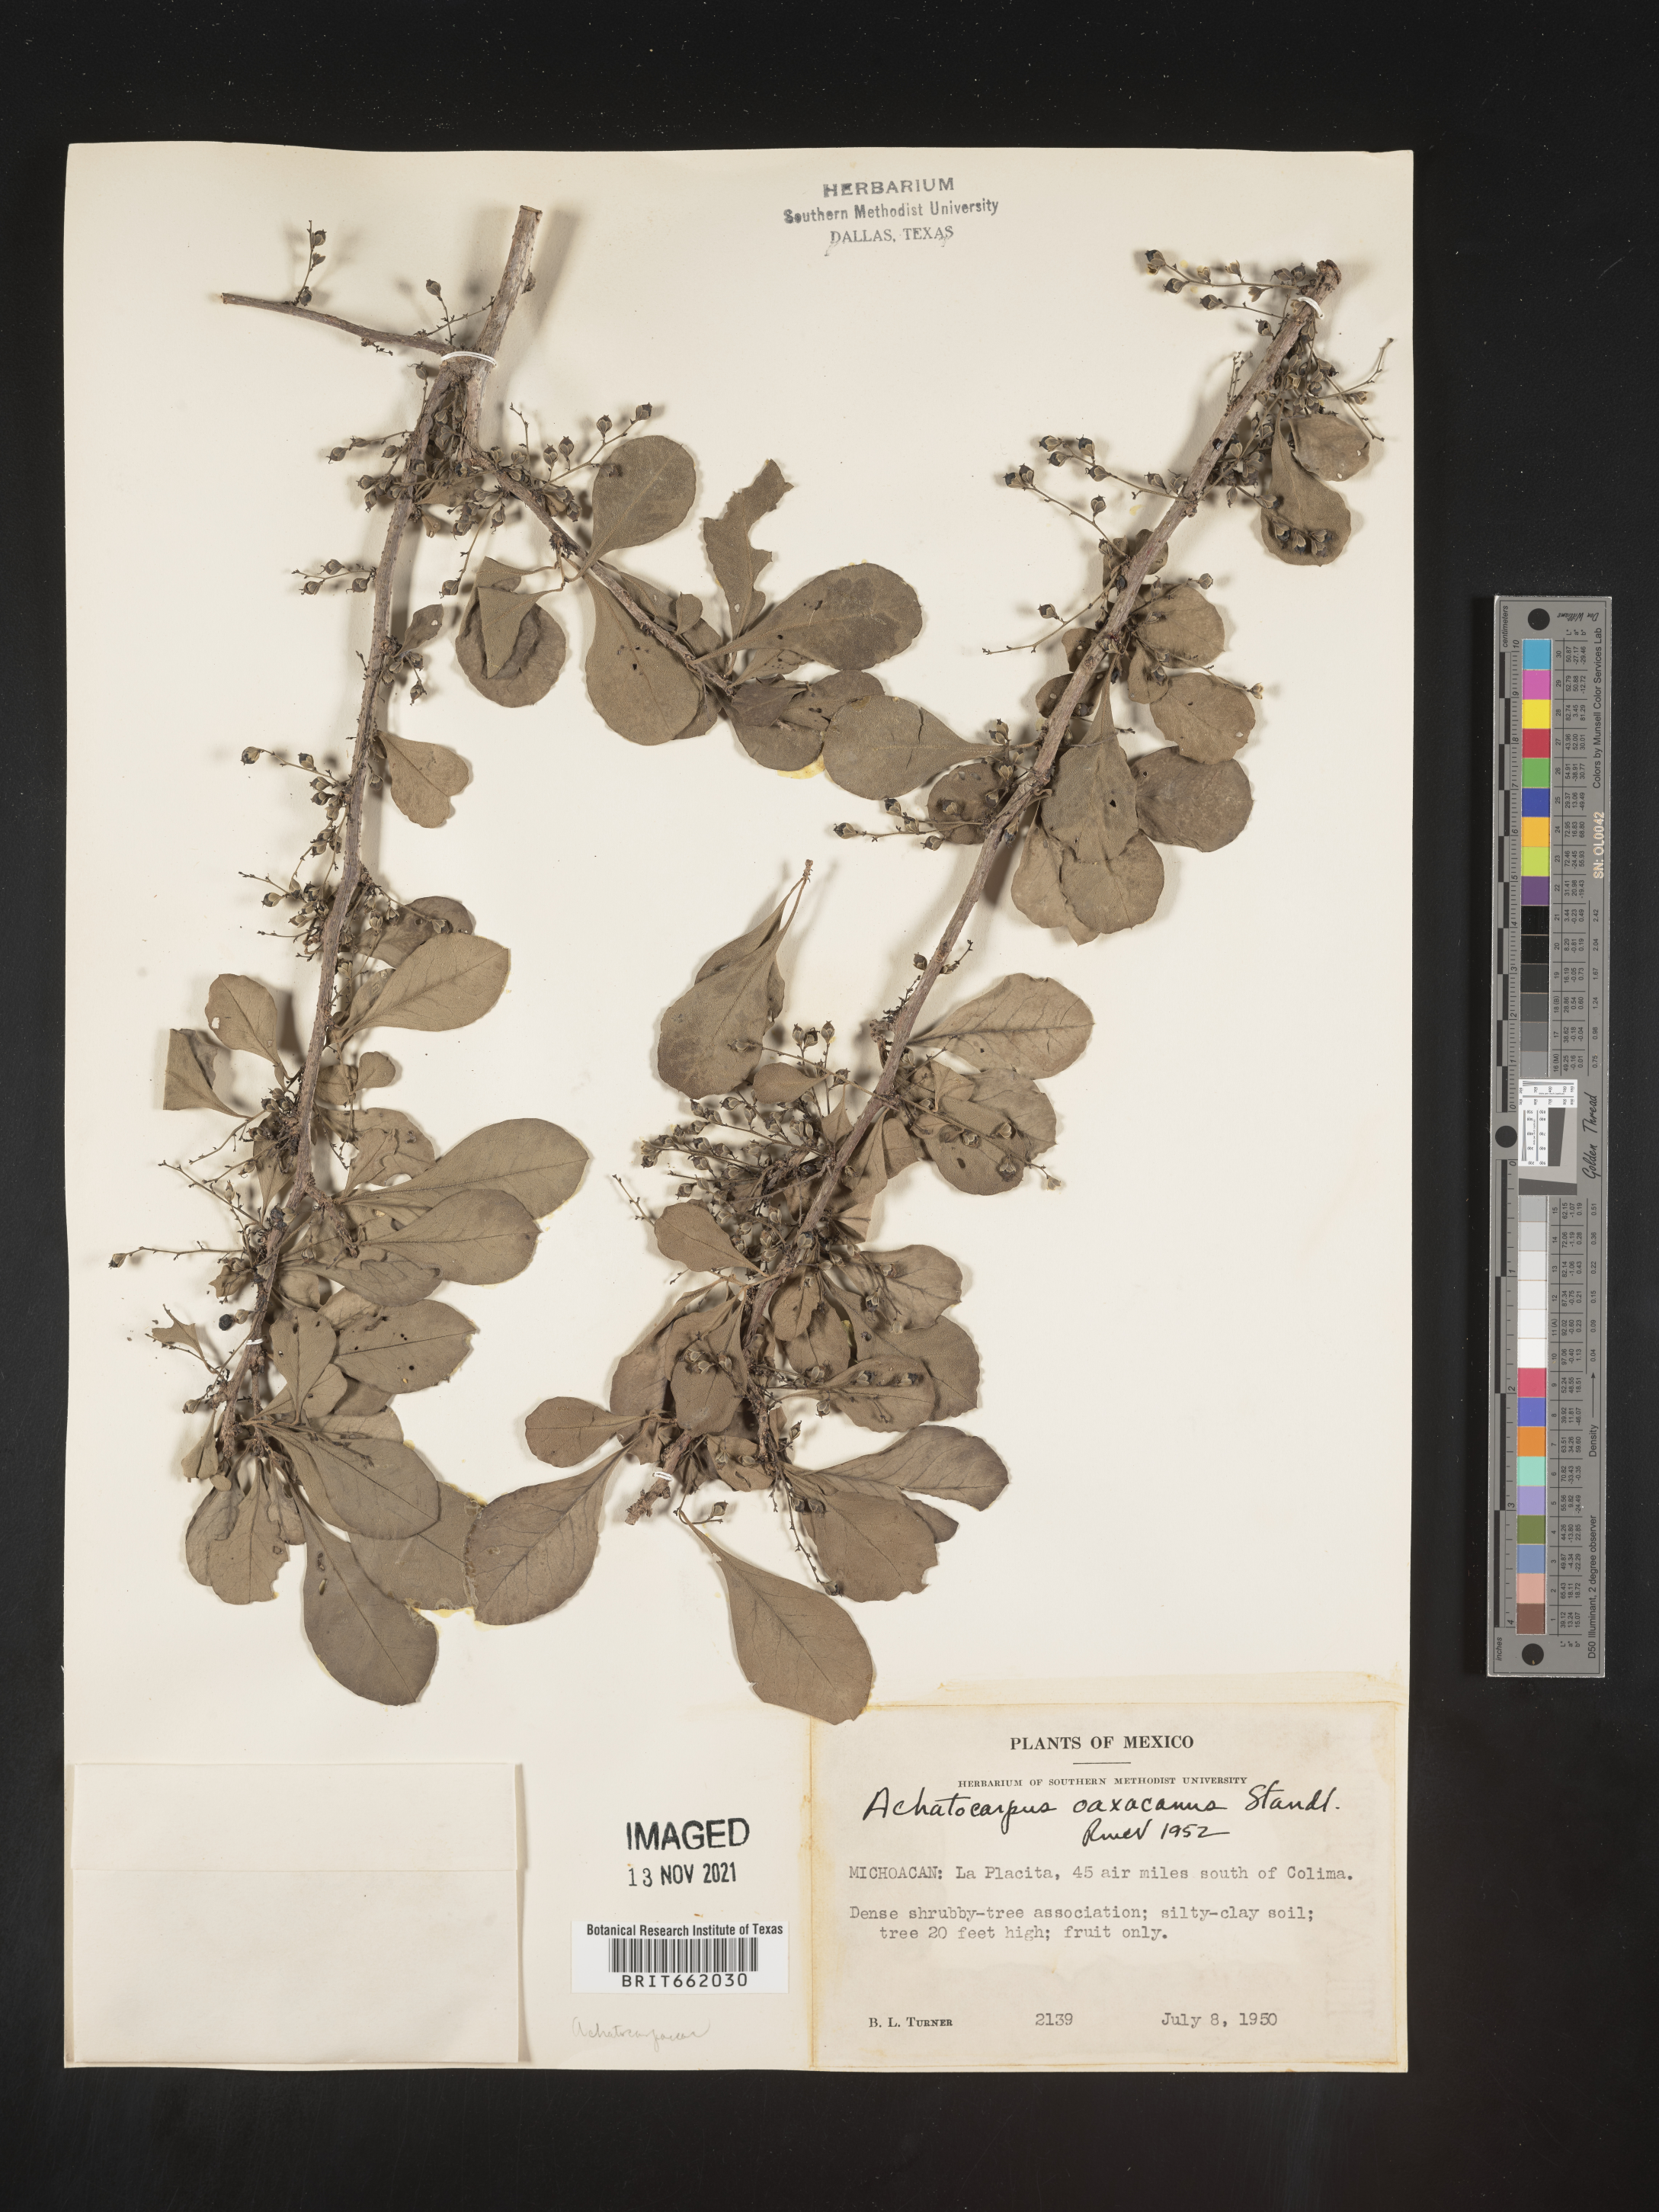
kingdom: Plantae
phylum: Tracheophyta
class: Magnoliopsida
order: Caryophyllales
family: Achatocarpaceae
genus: Achatocarpus
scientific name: Achatocarpus
